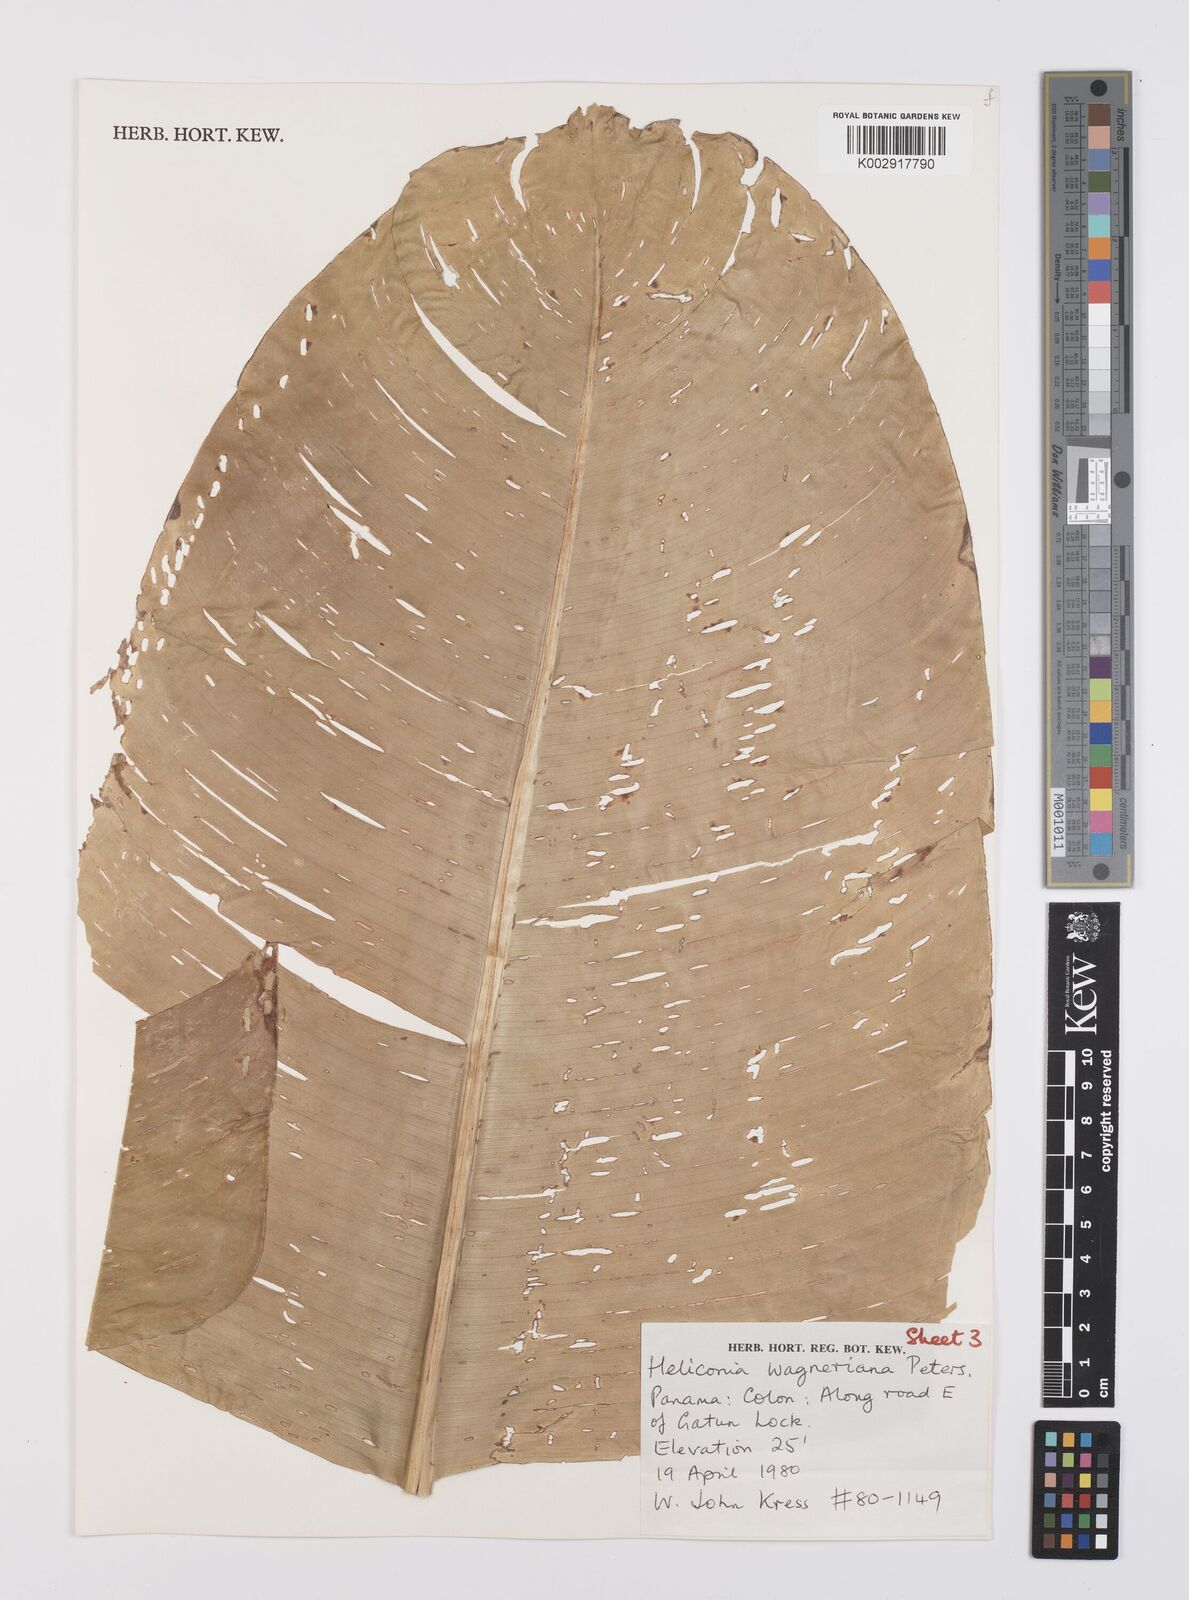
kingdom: Plantae
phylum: Tracheophyta
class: Liliopsida
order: Zingiberales
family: Heliconiaceae
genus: Heliconia
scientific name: Heliconia wagneriana
